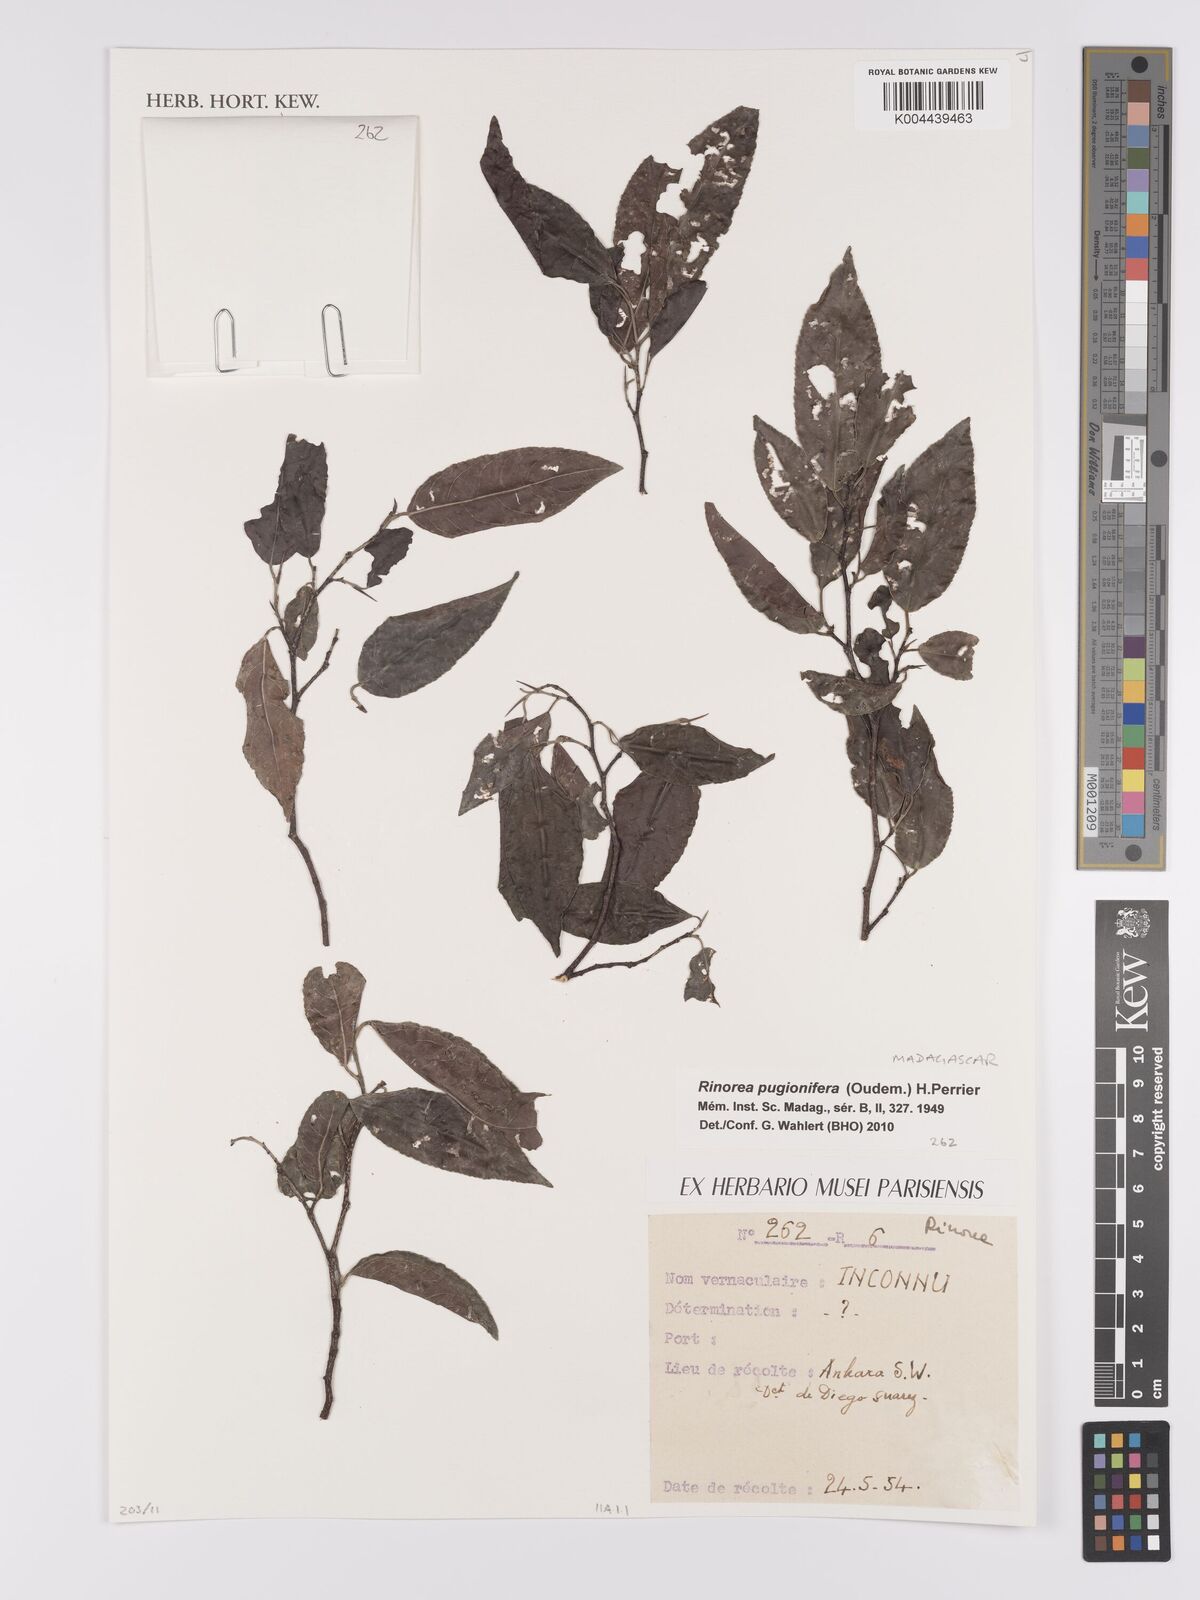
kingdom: Plantae
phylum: Tracheophyta
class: Magnoliopsida
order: Malpighiales
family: Violaceae
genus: Rinorea
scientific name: Rinorea pugionifera
